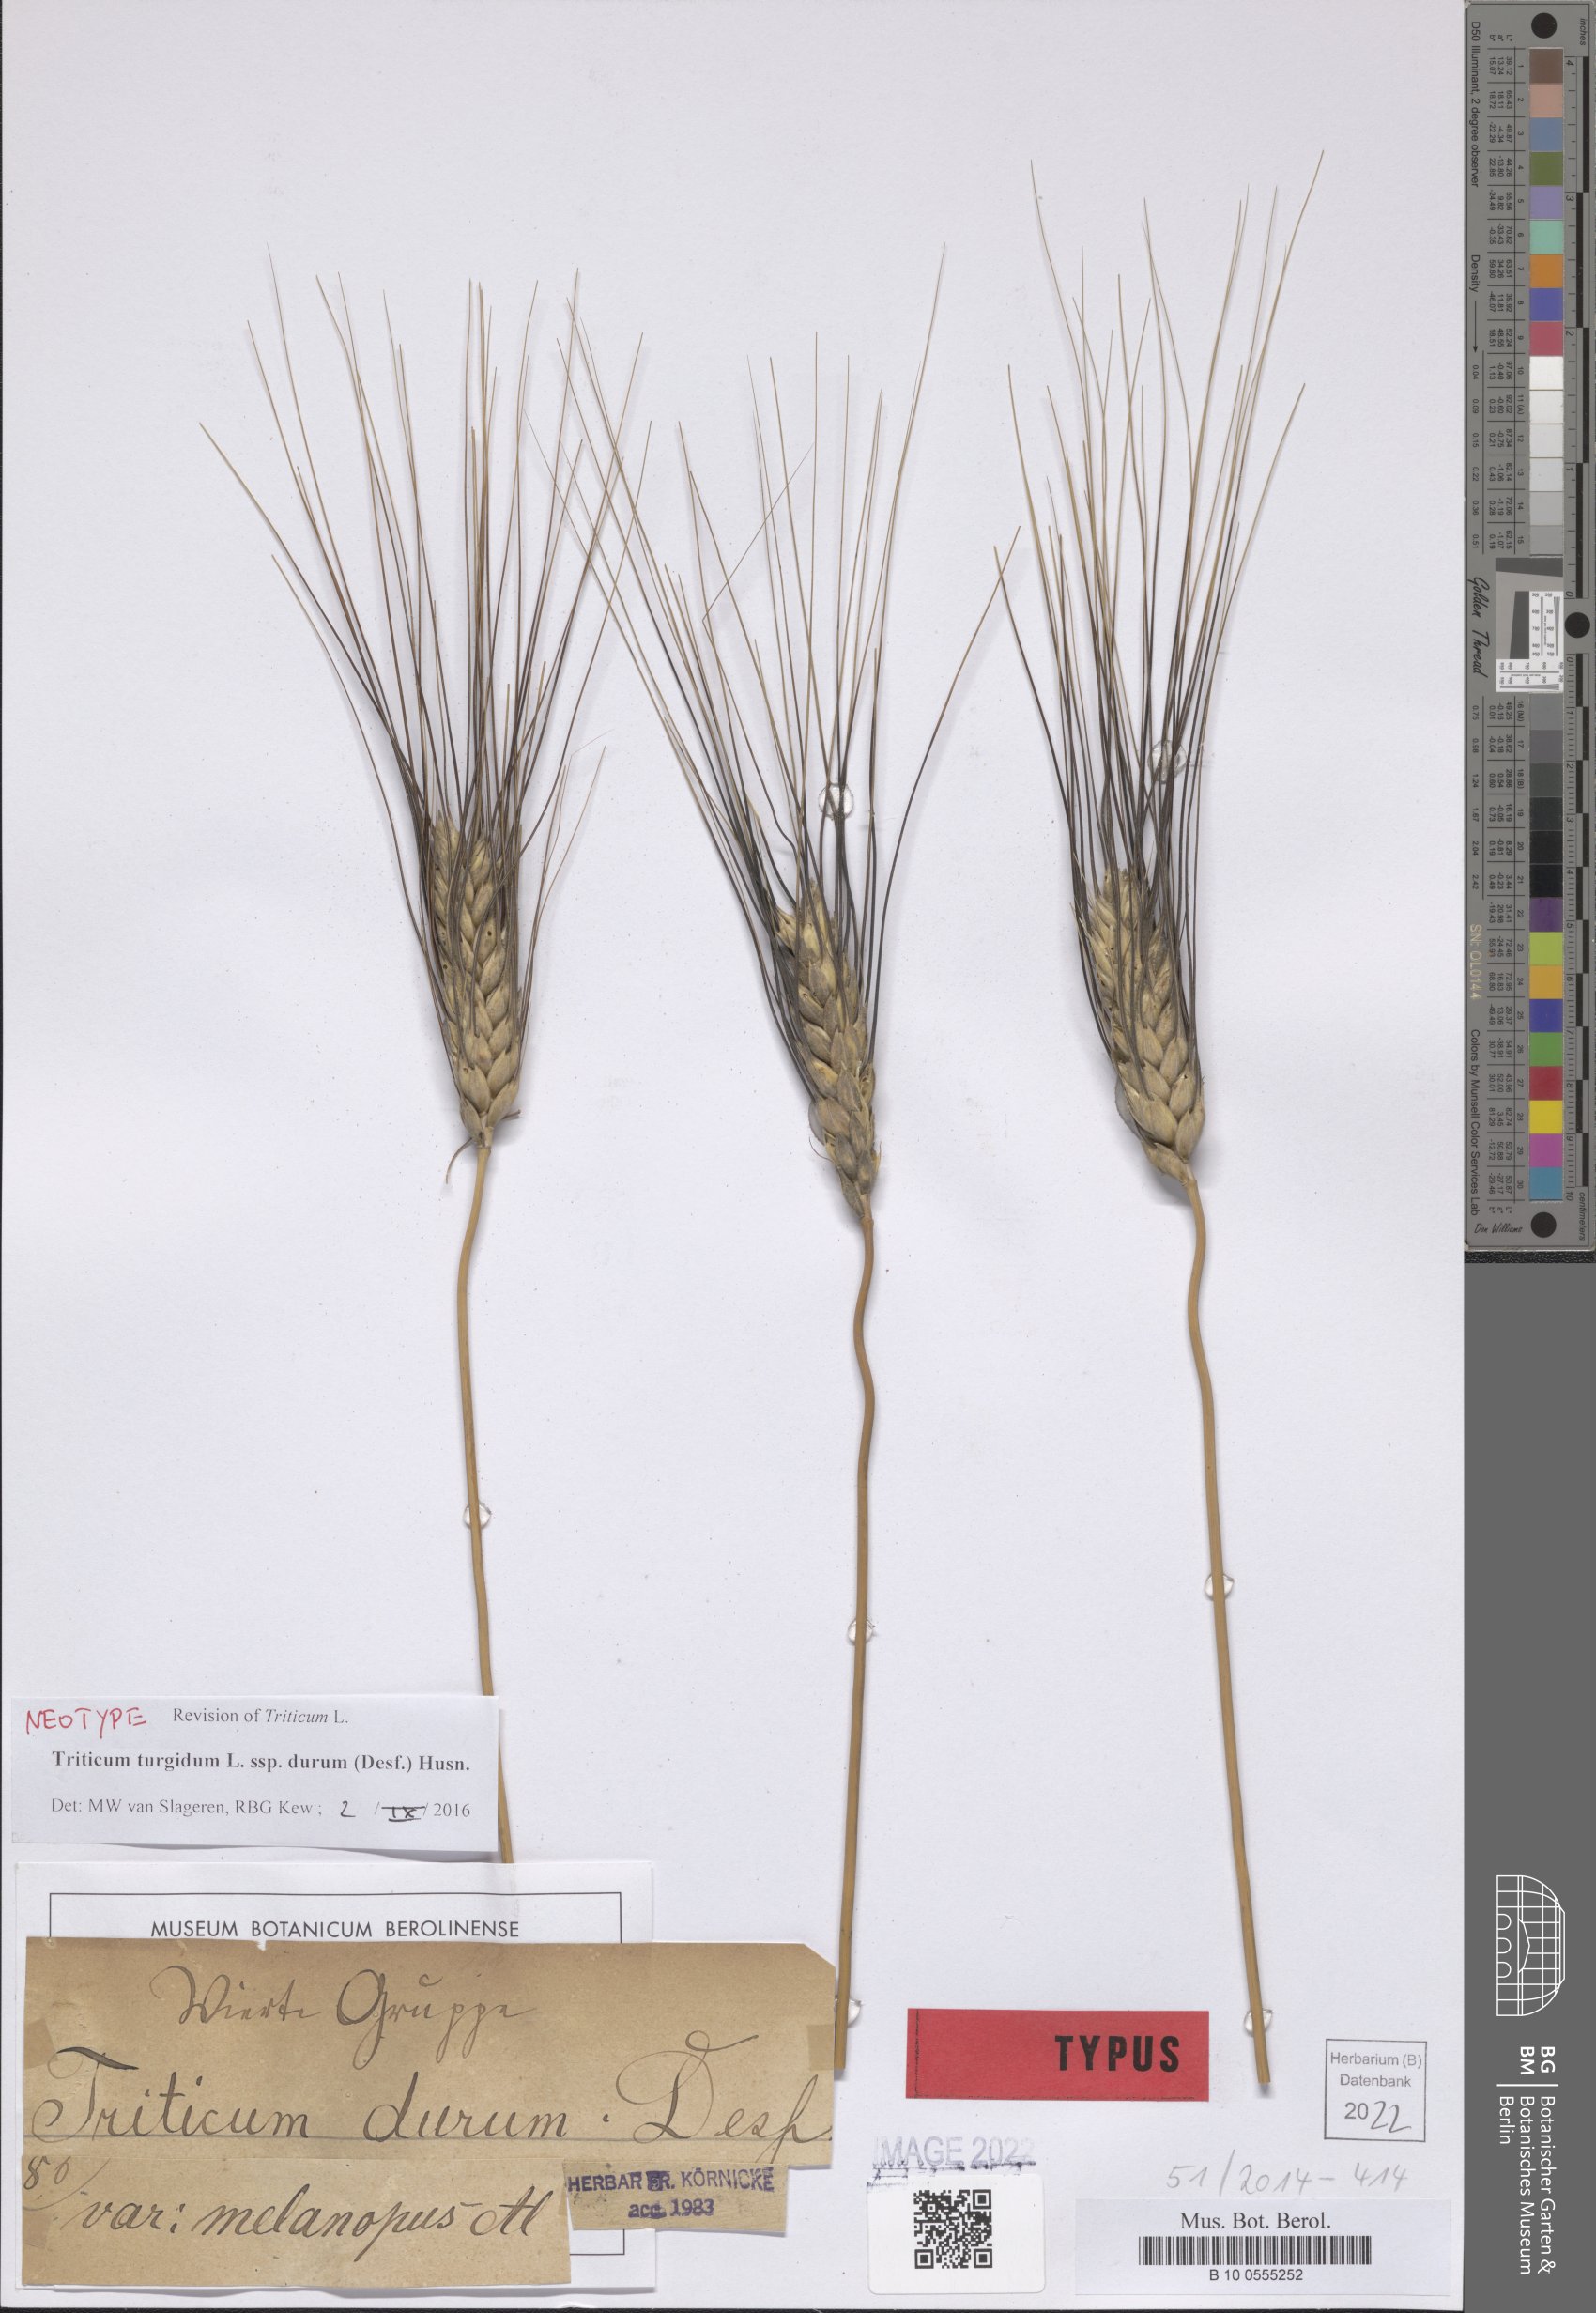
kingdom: Plantae
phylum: Tracheophyta
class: Liliopsida
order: Poales
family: Poaceae
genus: Triticum
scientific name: Triticum turgidum
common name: Rivet wheat
